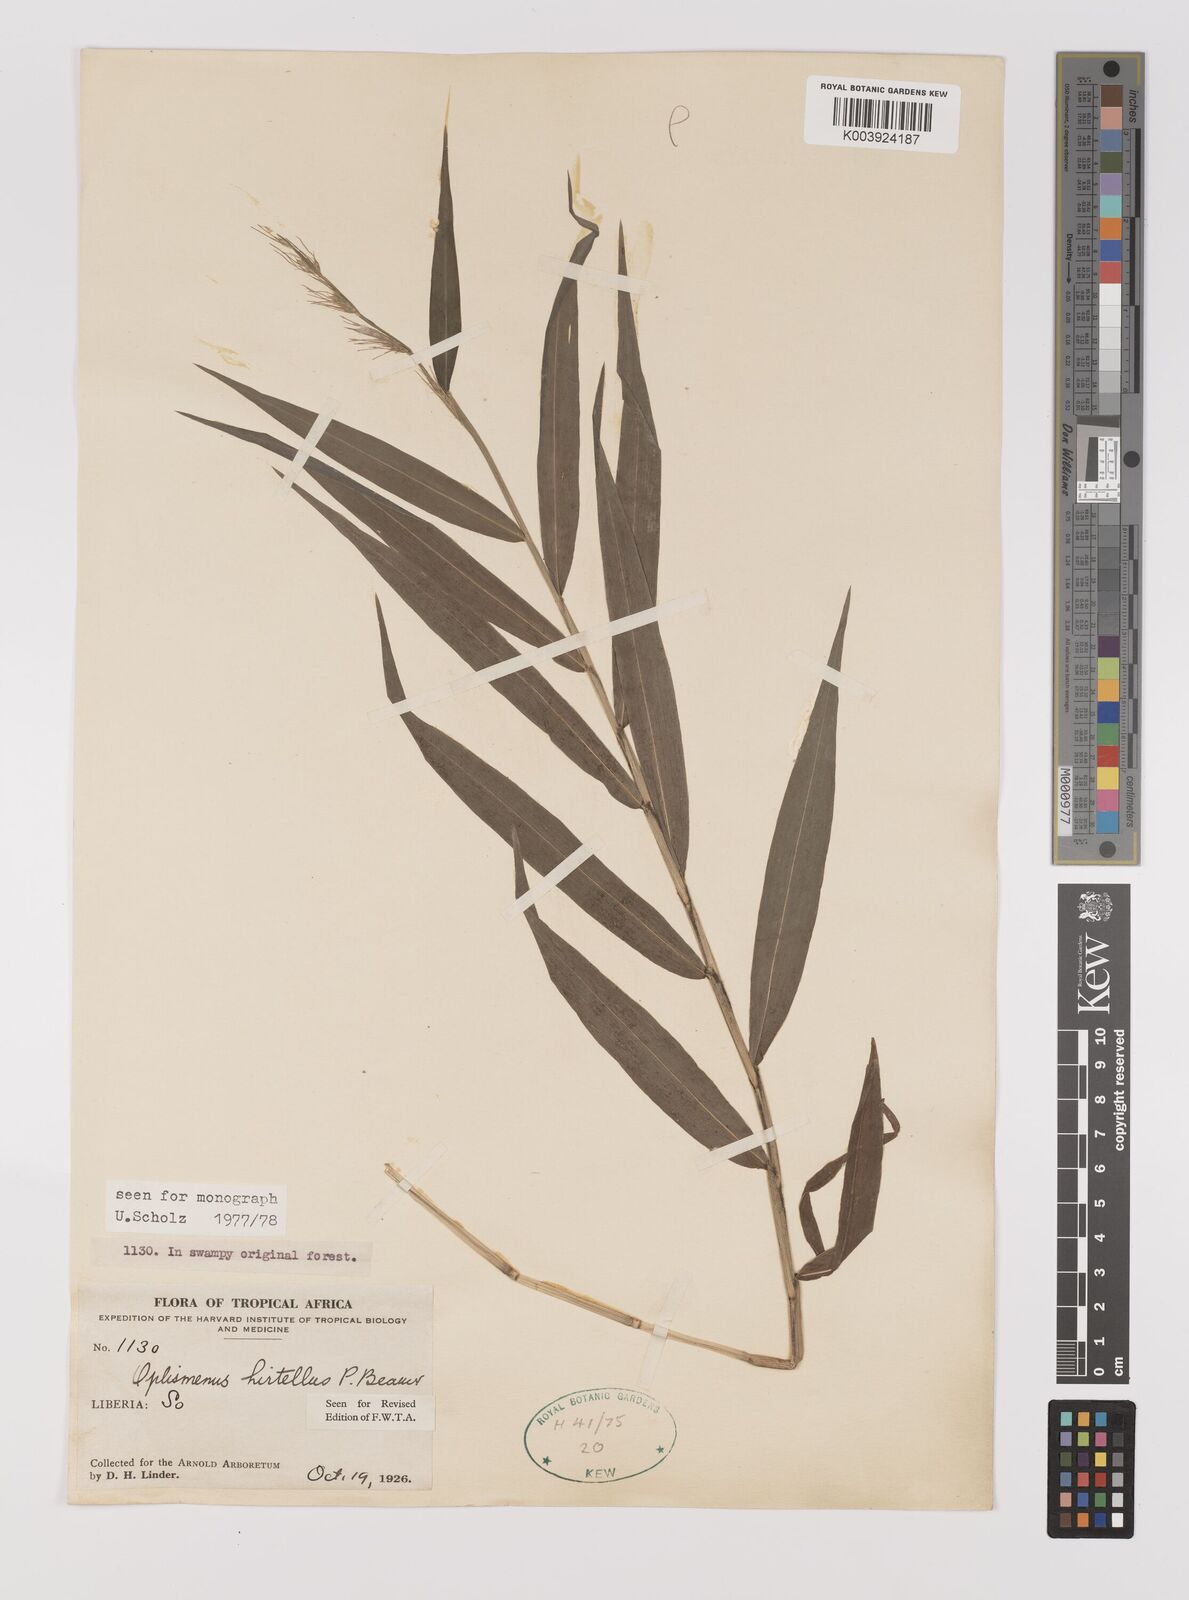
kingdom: Plantae
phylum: Tracheophyta
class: Liliopsida
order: Poales
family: Poaceae
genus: Oplismenus
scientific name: Oplismenus hirtellus
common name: Basketgrass
